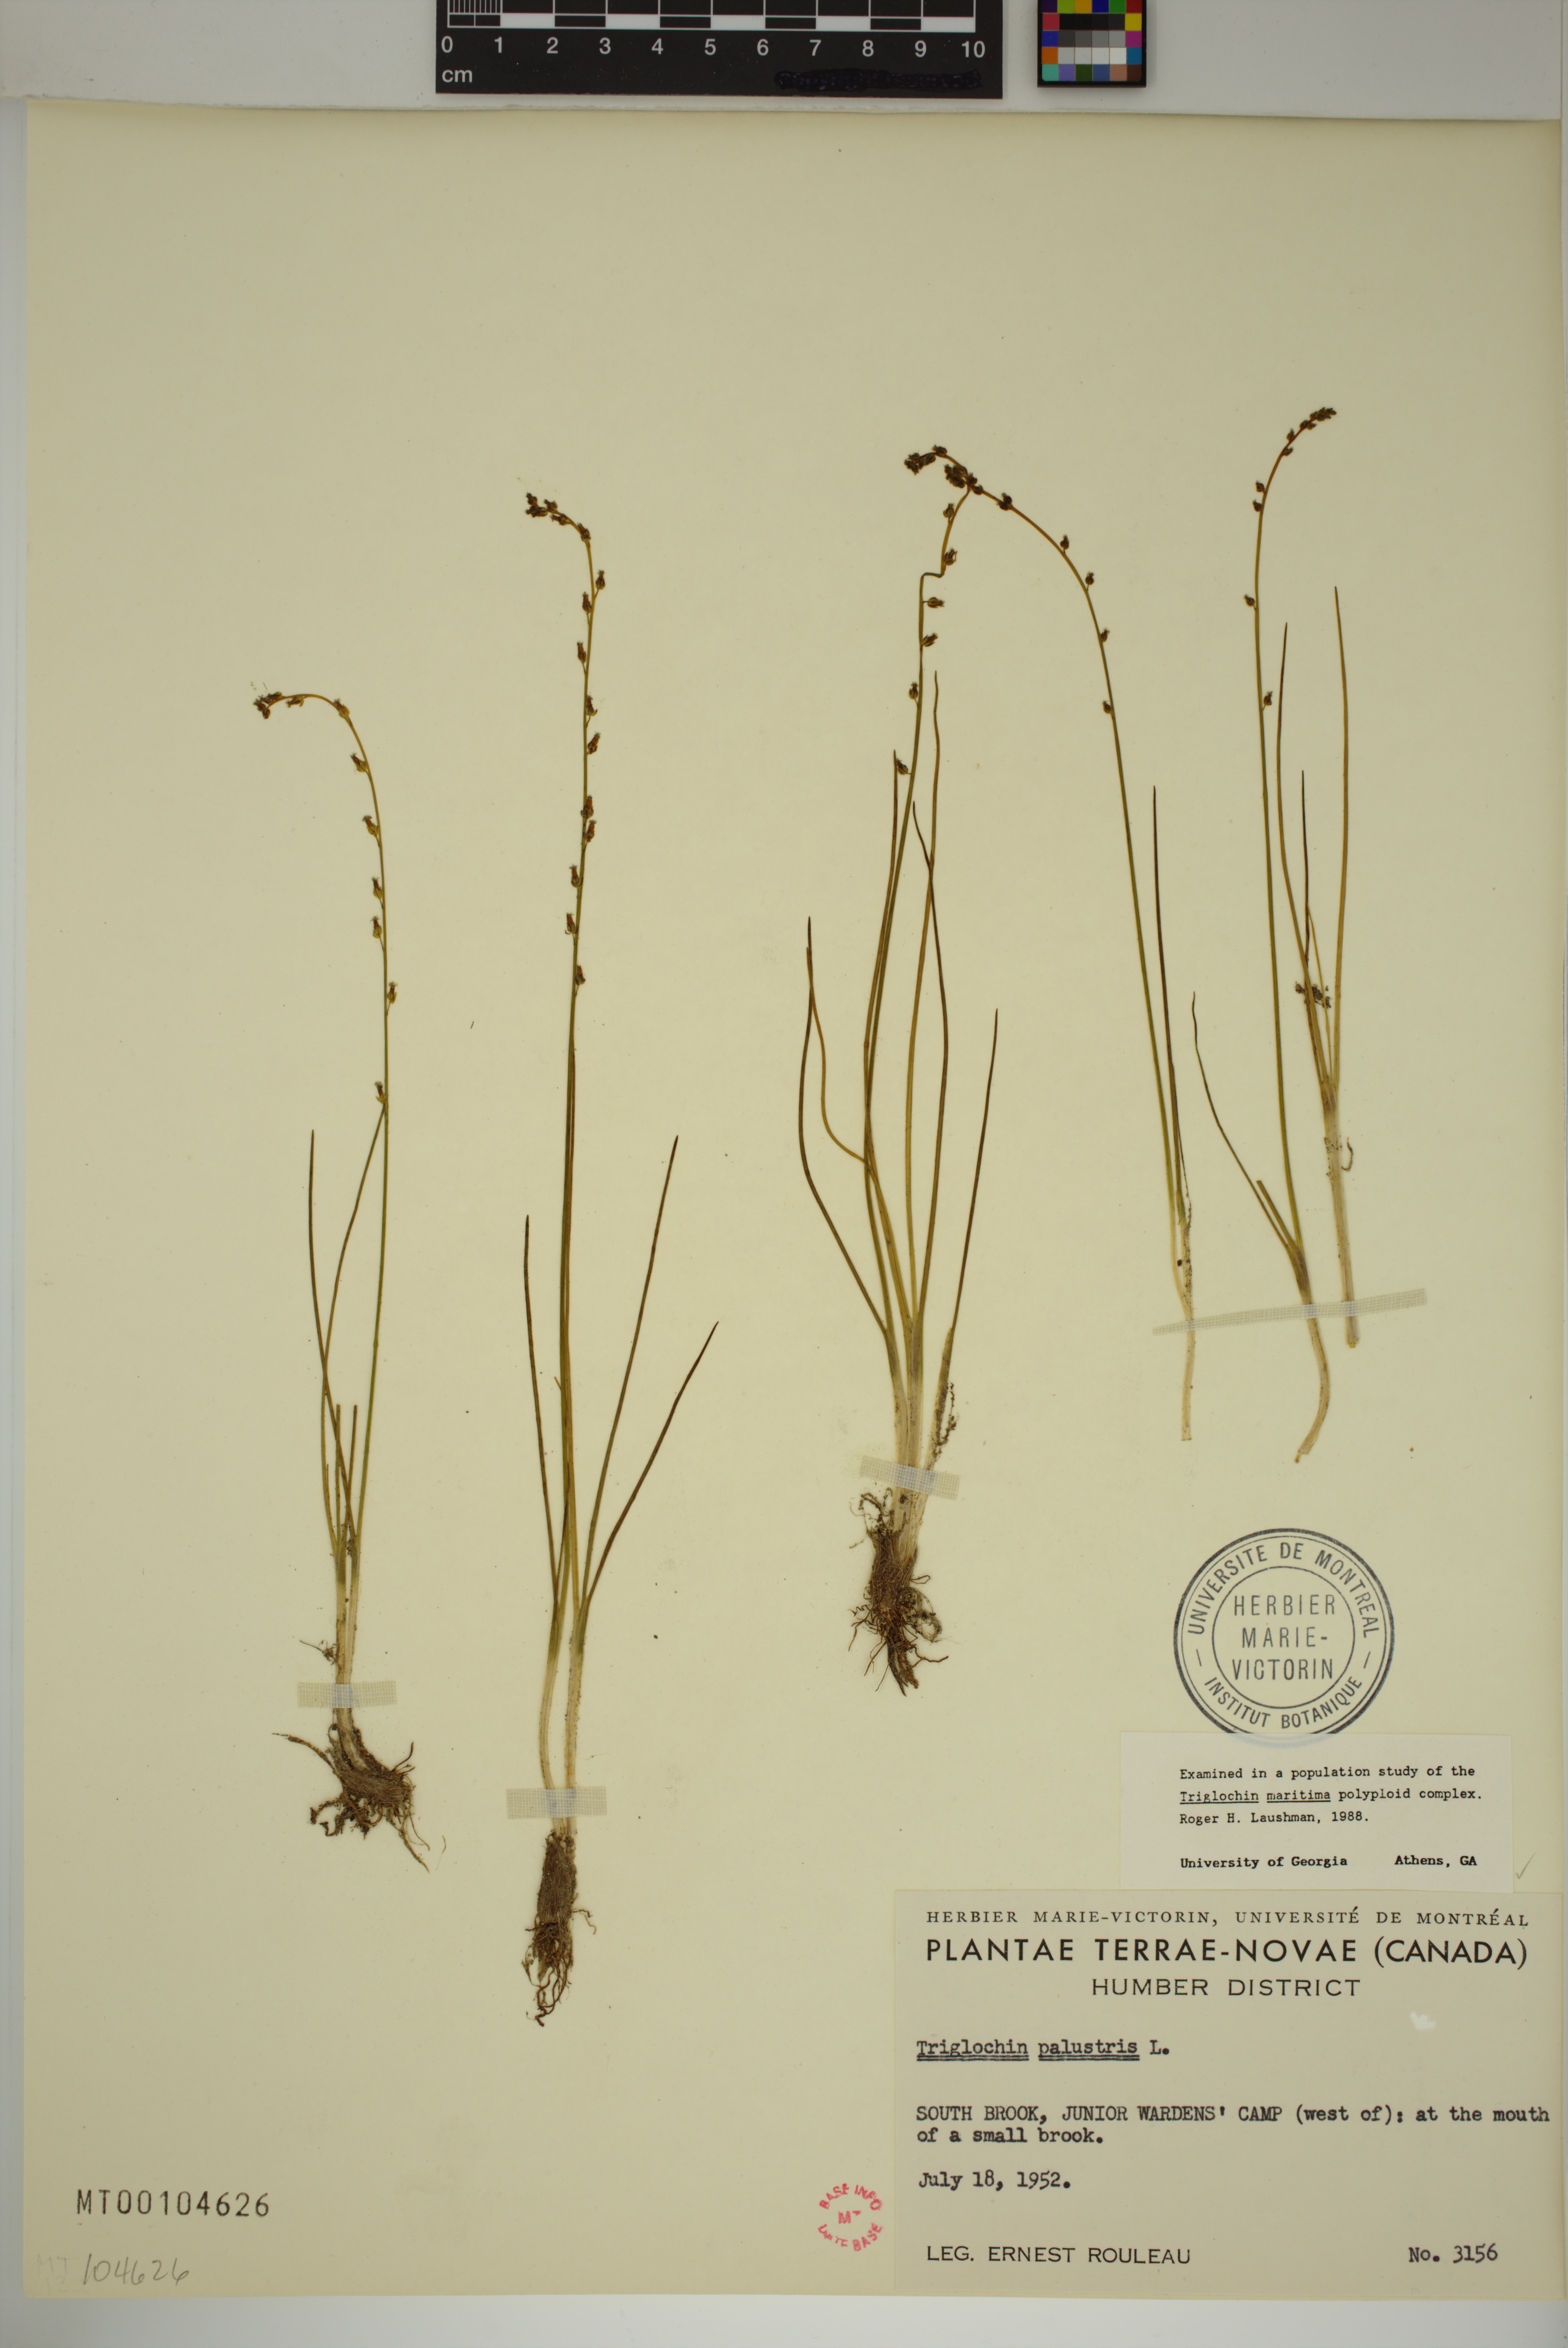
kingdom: Plantae
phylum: Tracheophyta
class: Liliopsida
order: Alismatales
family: Juncaginaceae
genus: Triglochin
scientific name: Triglochin palustris
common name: Marsh arrowgrass
